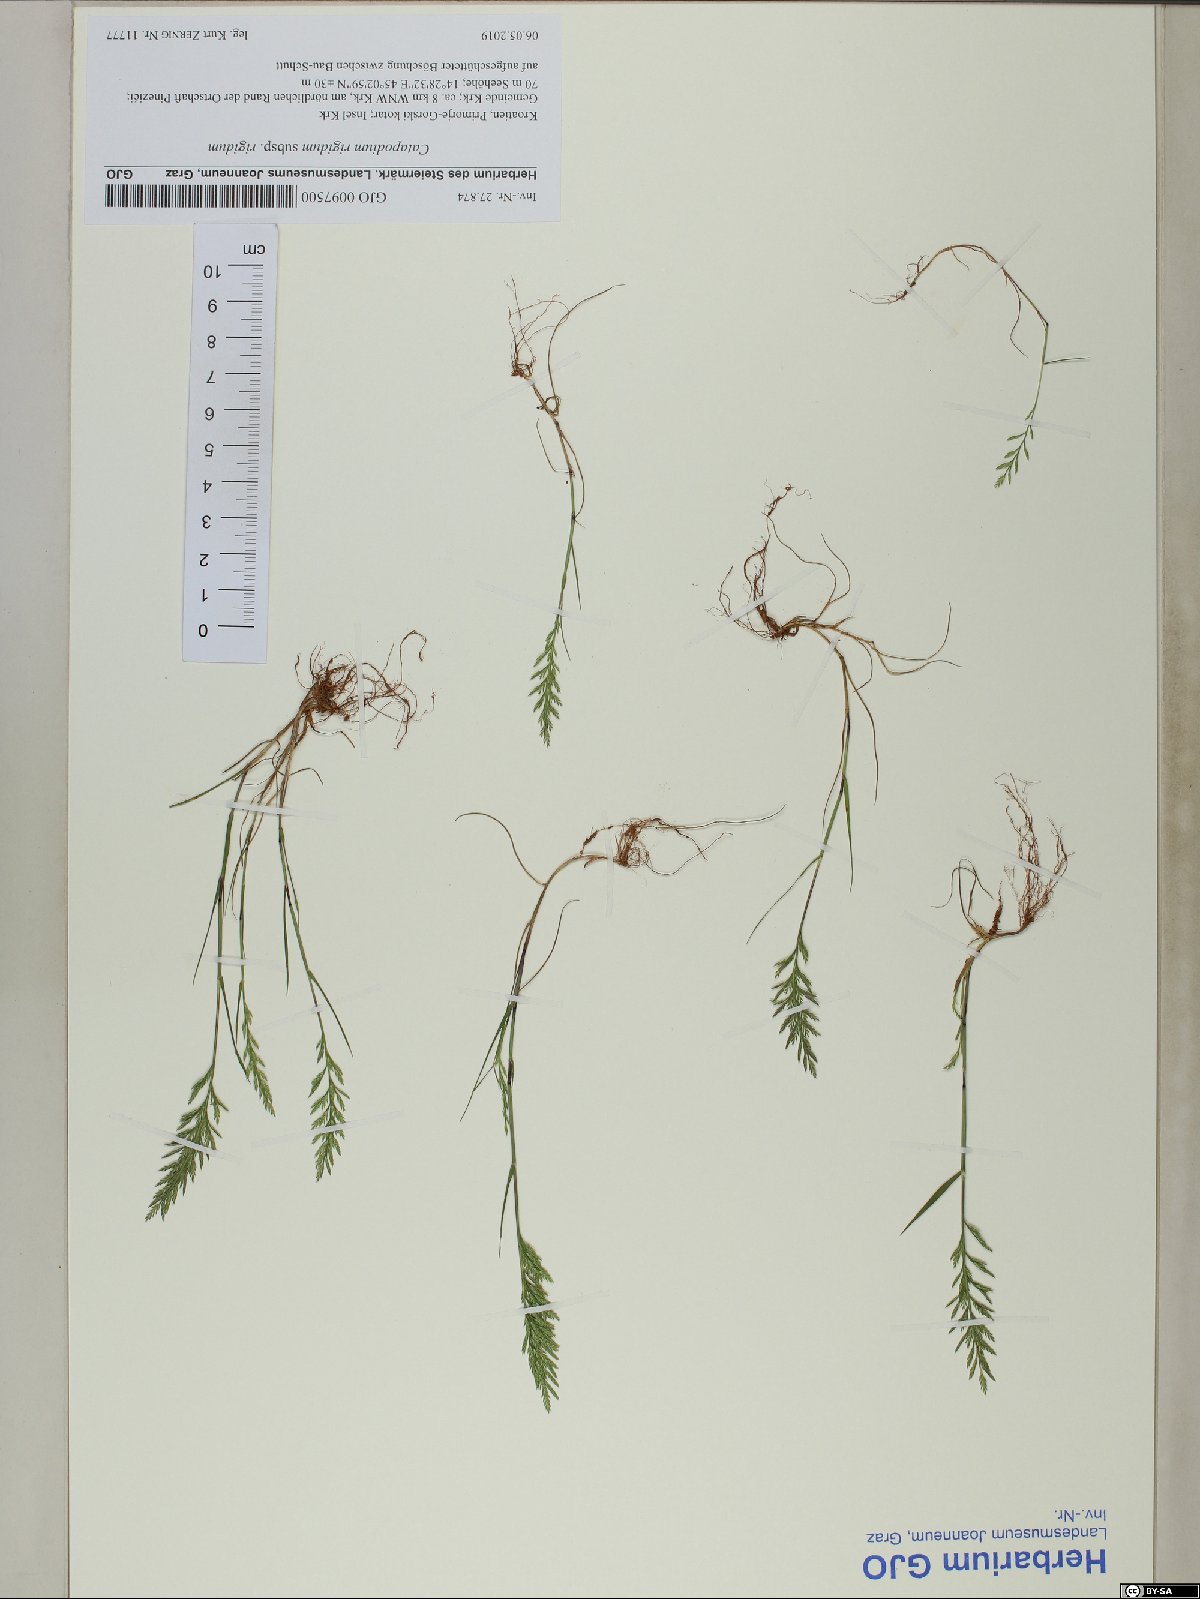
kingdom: Plantae
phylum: Tracheophyta
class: Liliopsida
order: Poales
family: Poaceae
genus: Catapodium
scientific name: Catapodium rigidum
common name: Fern-grass
